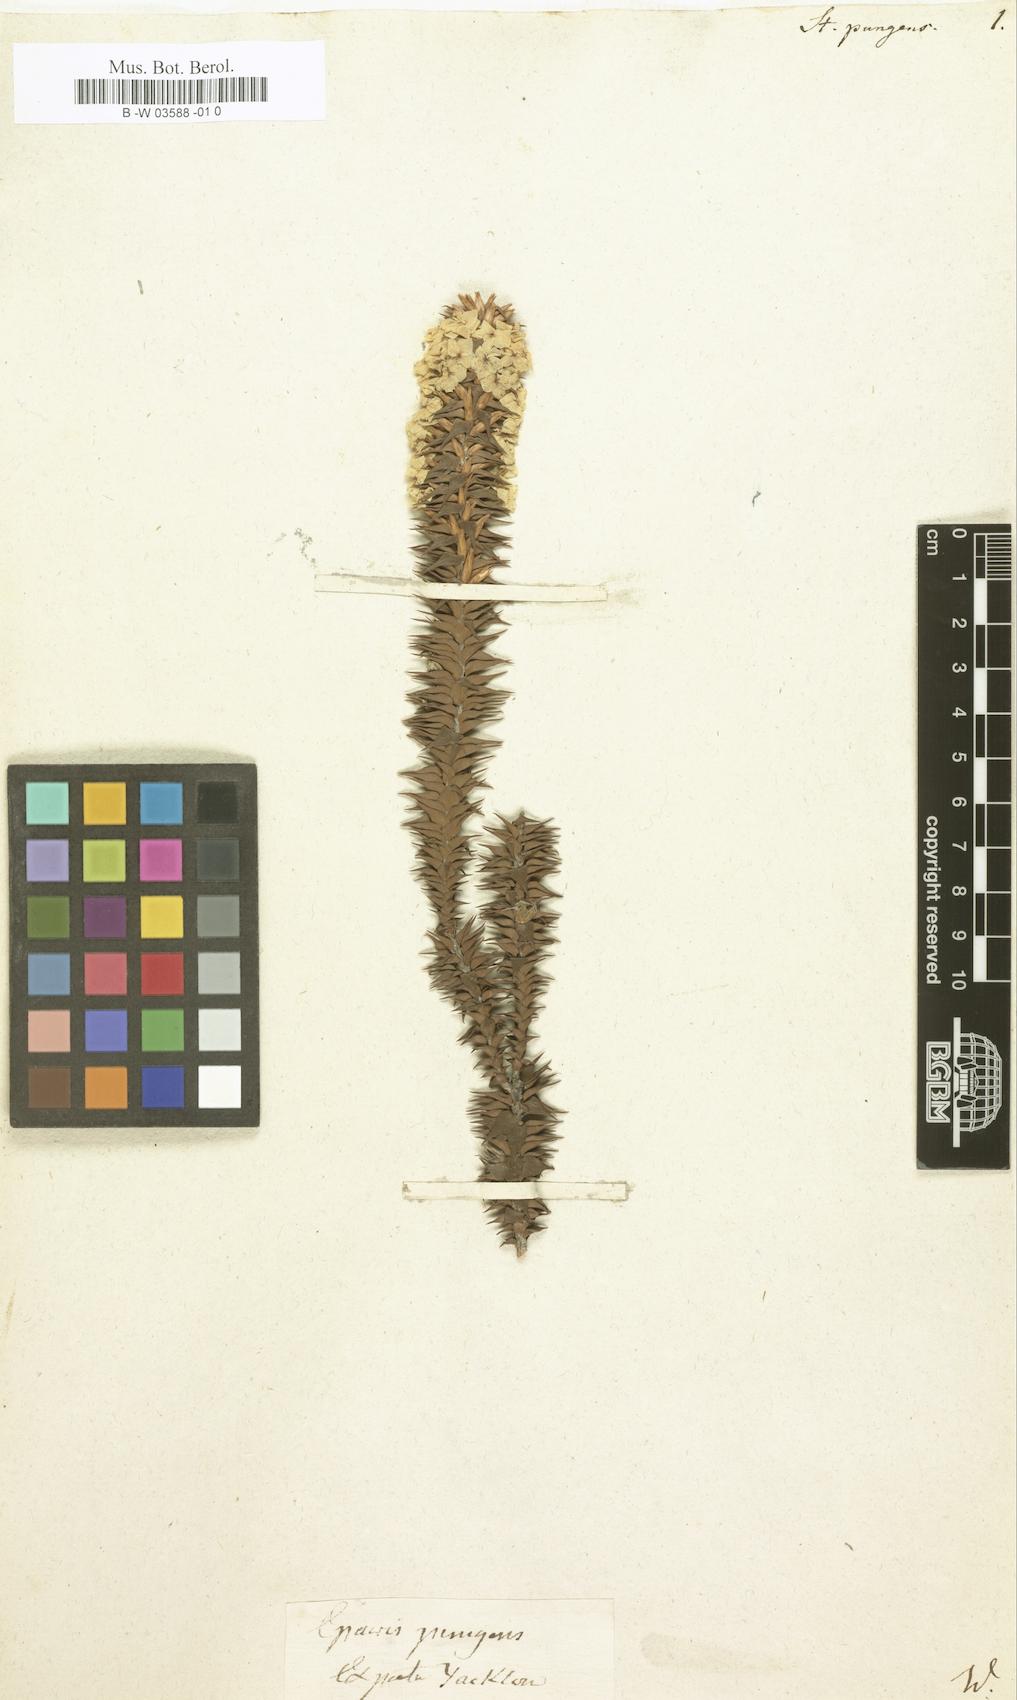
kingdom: Plantae
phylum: Tracheophyta
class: Magnoliopsida
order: Ericales
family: Ericaceae
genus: Styphelia
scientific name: Styphelia propinqua
